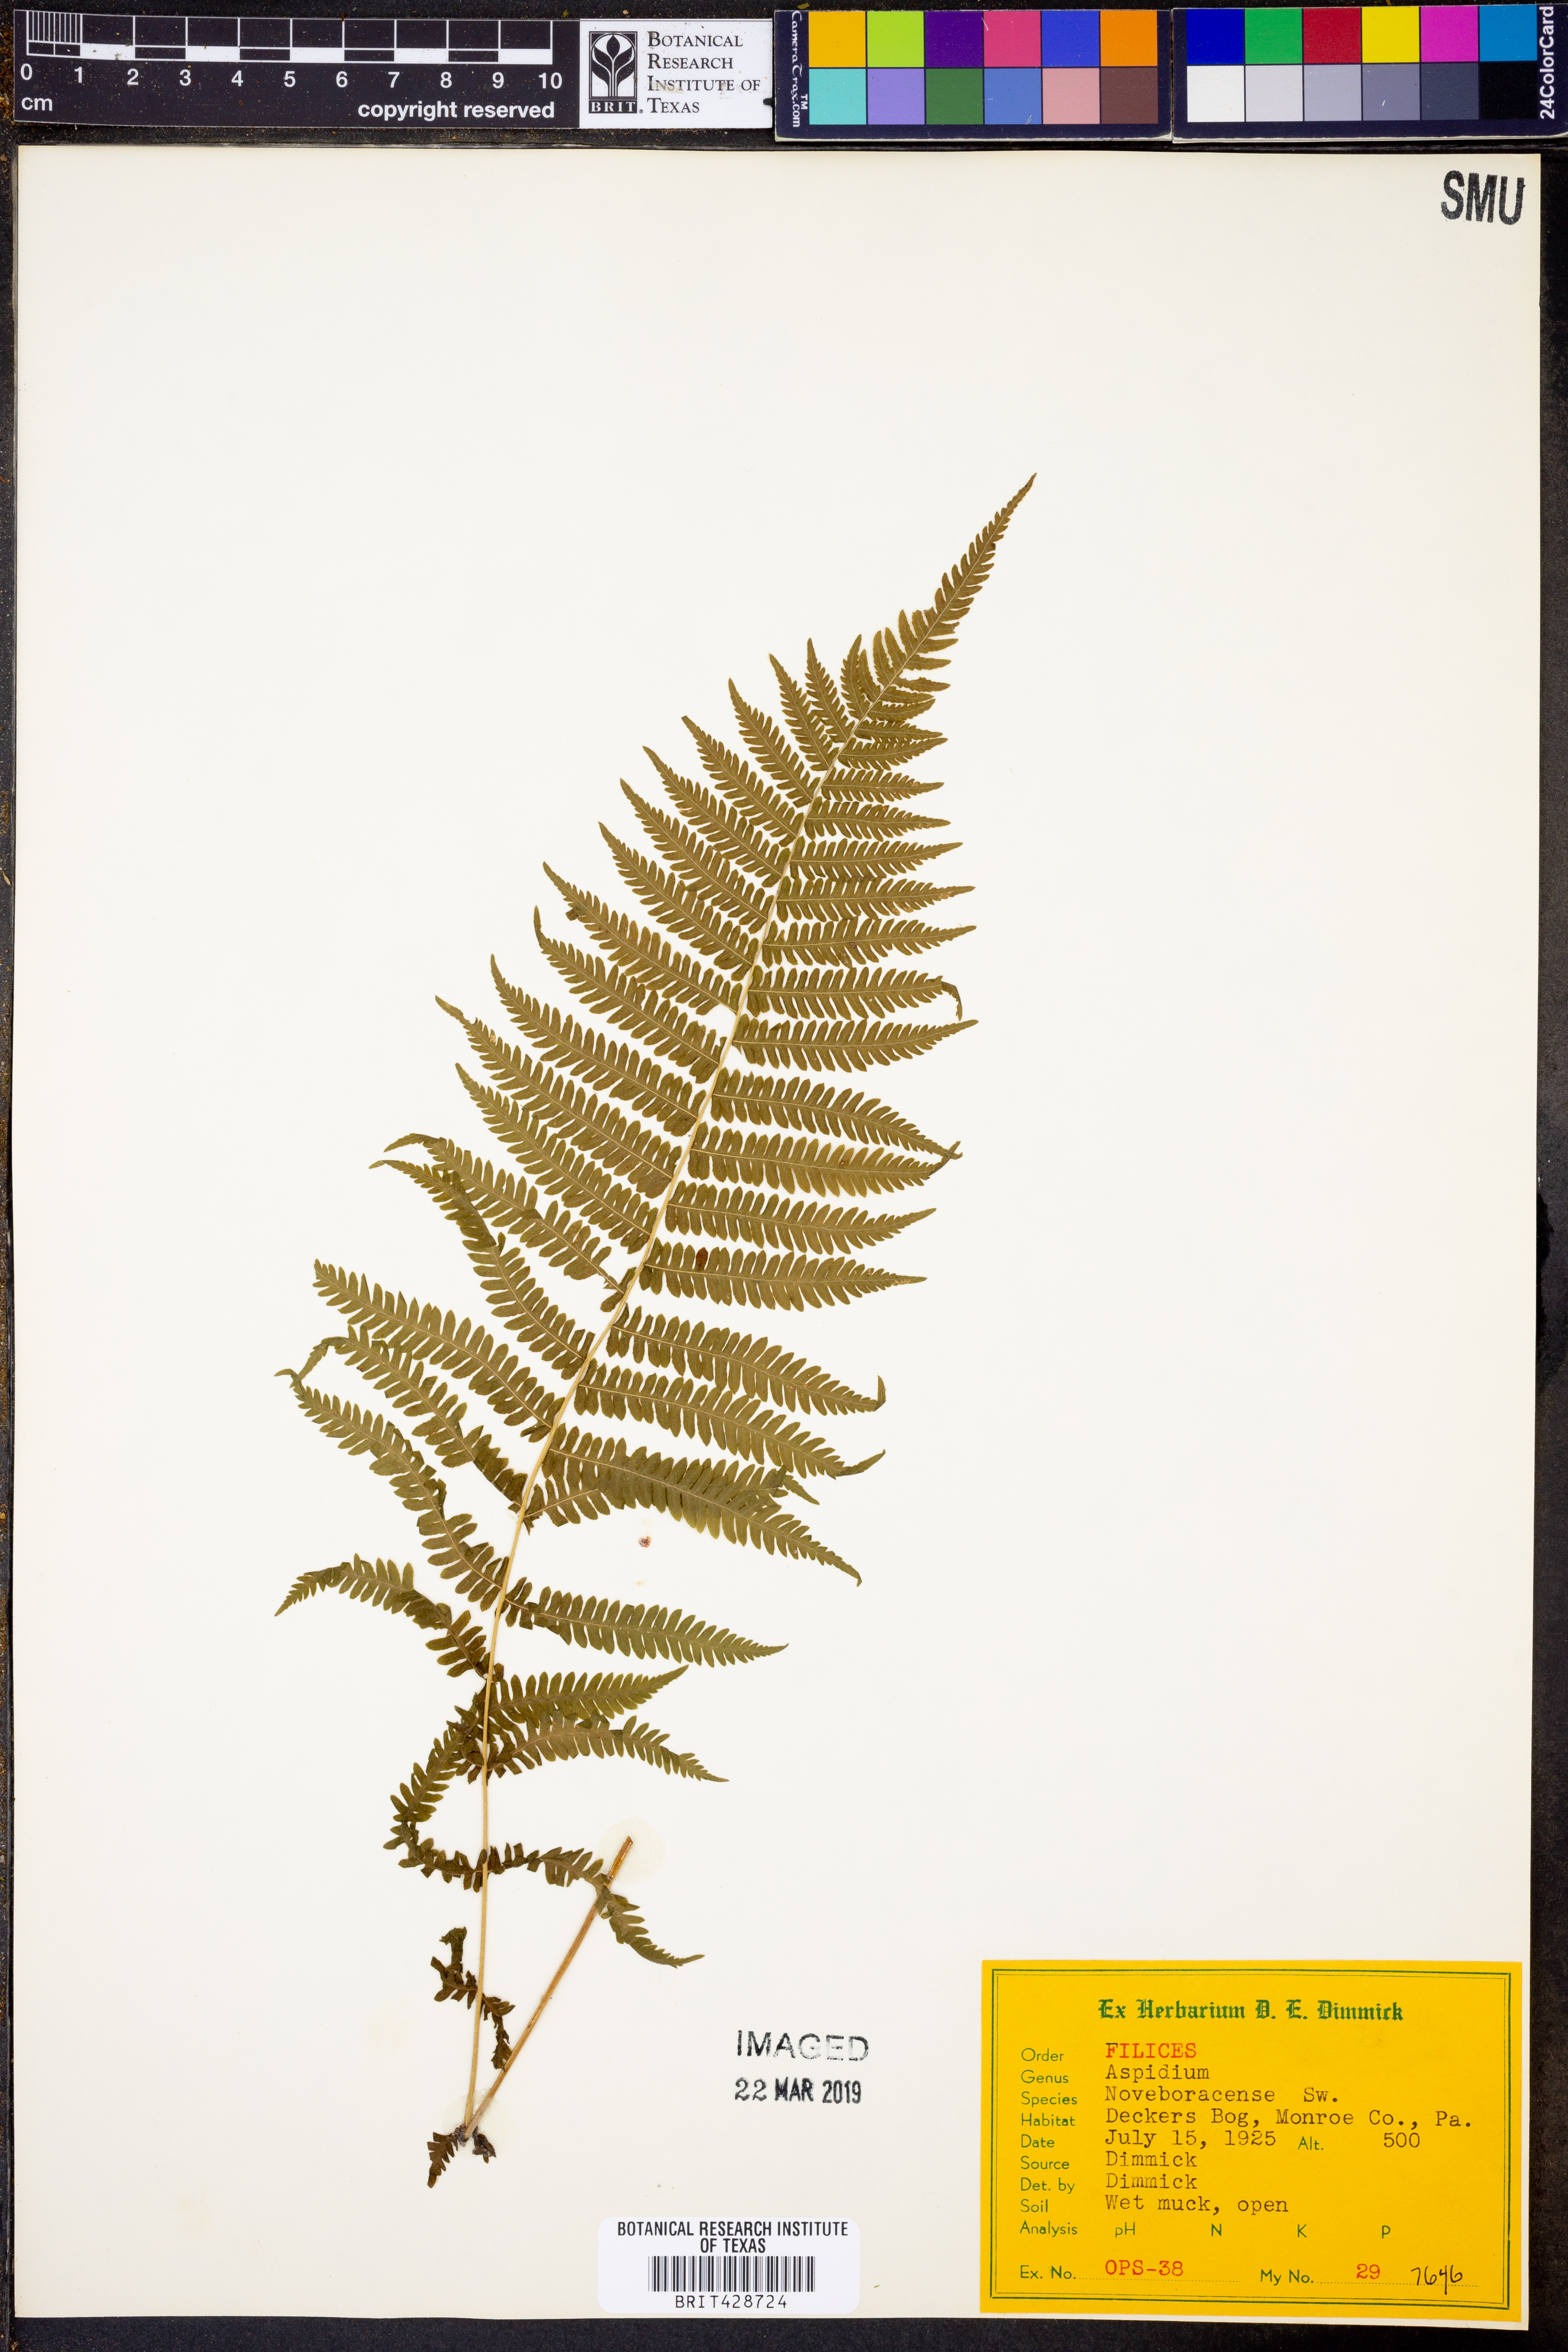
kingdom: Plantae
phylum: Tracheophyta
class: Polypodiopsida
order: Polypodiales
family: Thelypteridaceae
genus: Amauropelta
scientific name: Amauropelta noveboracensis
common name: New york fern
